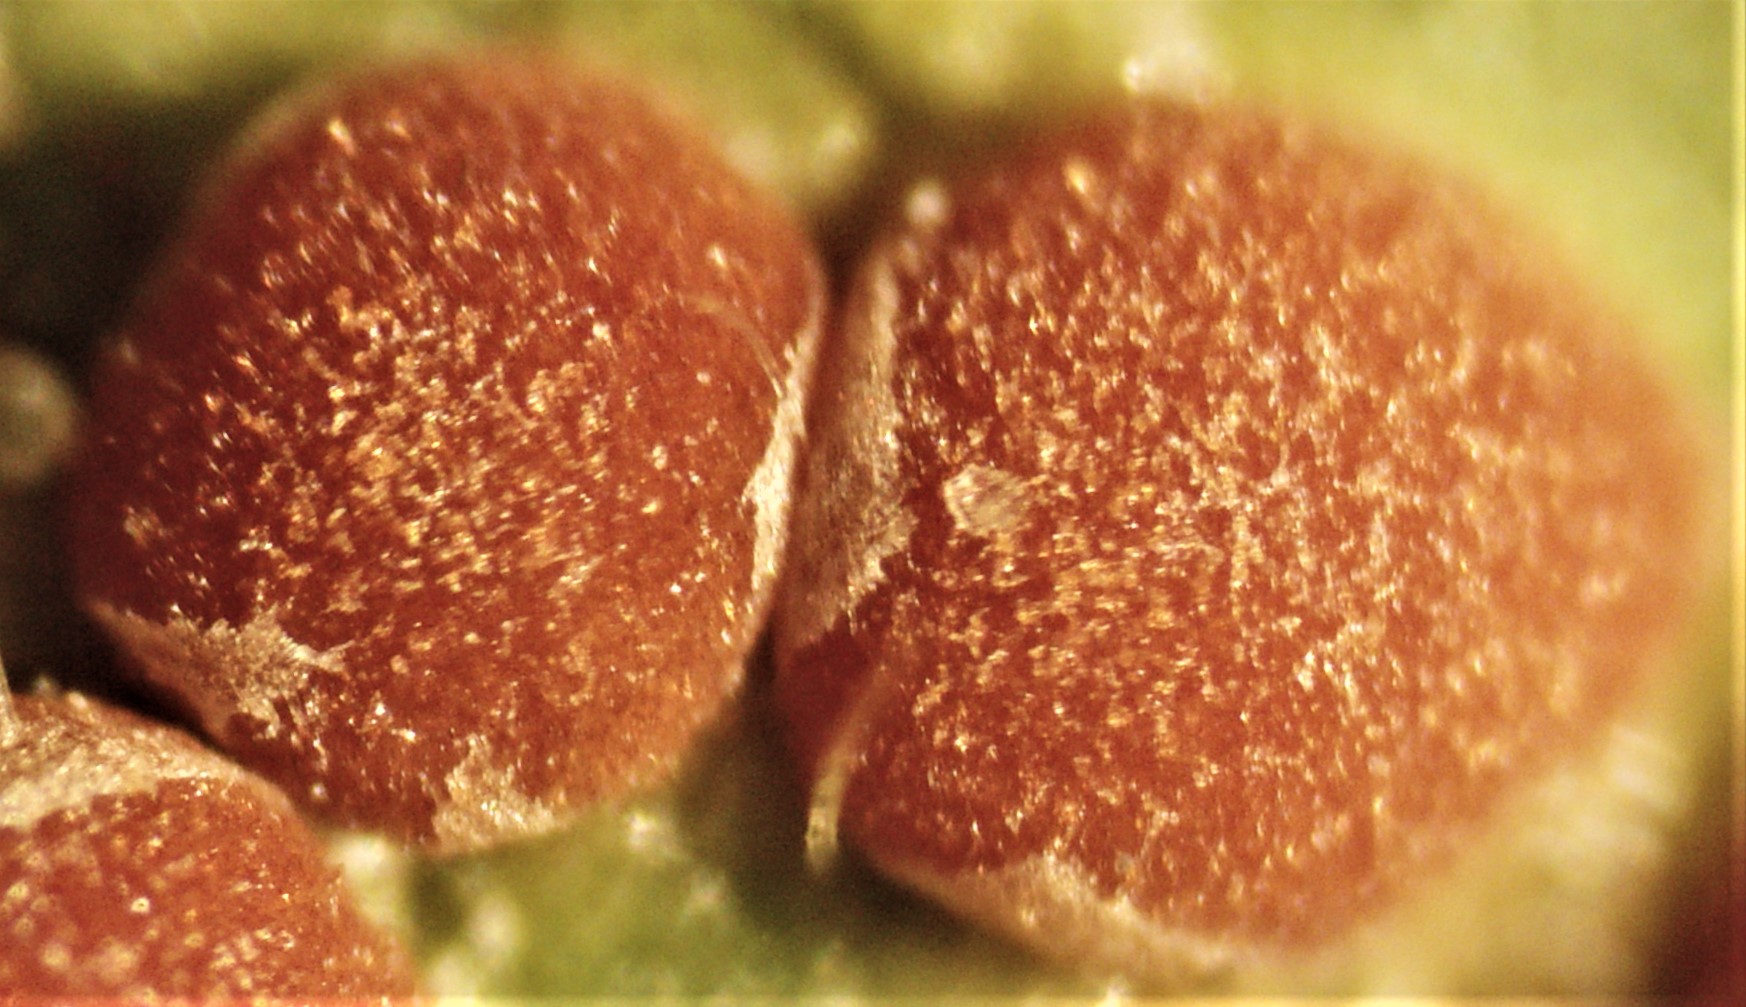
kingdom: Fungi
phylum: Basidiomycota
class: Pucciniomycetes
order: Pucciniales
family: Pucciniaceae
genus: Puccinia
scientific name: Puccinia malvacearum
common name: stokrose-tvecellerust
